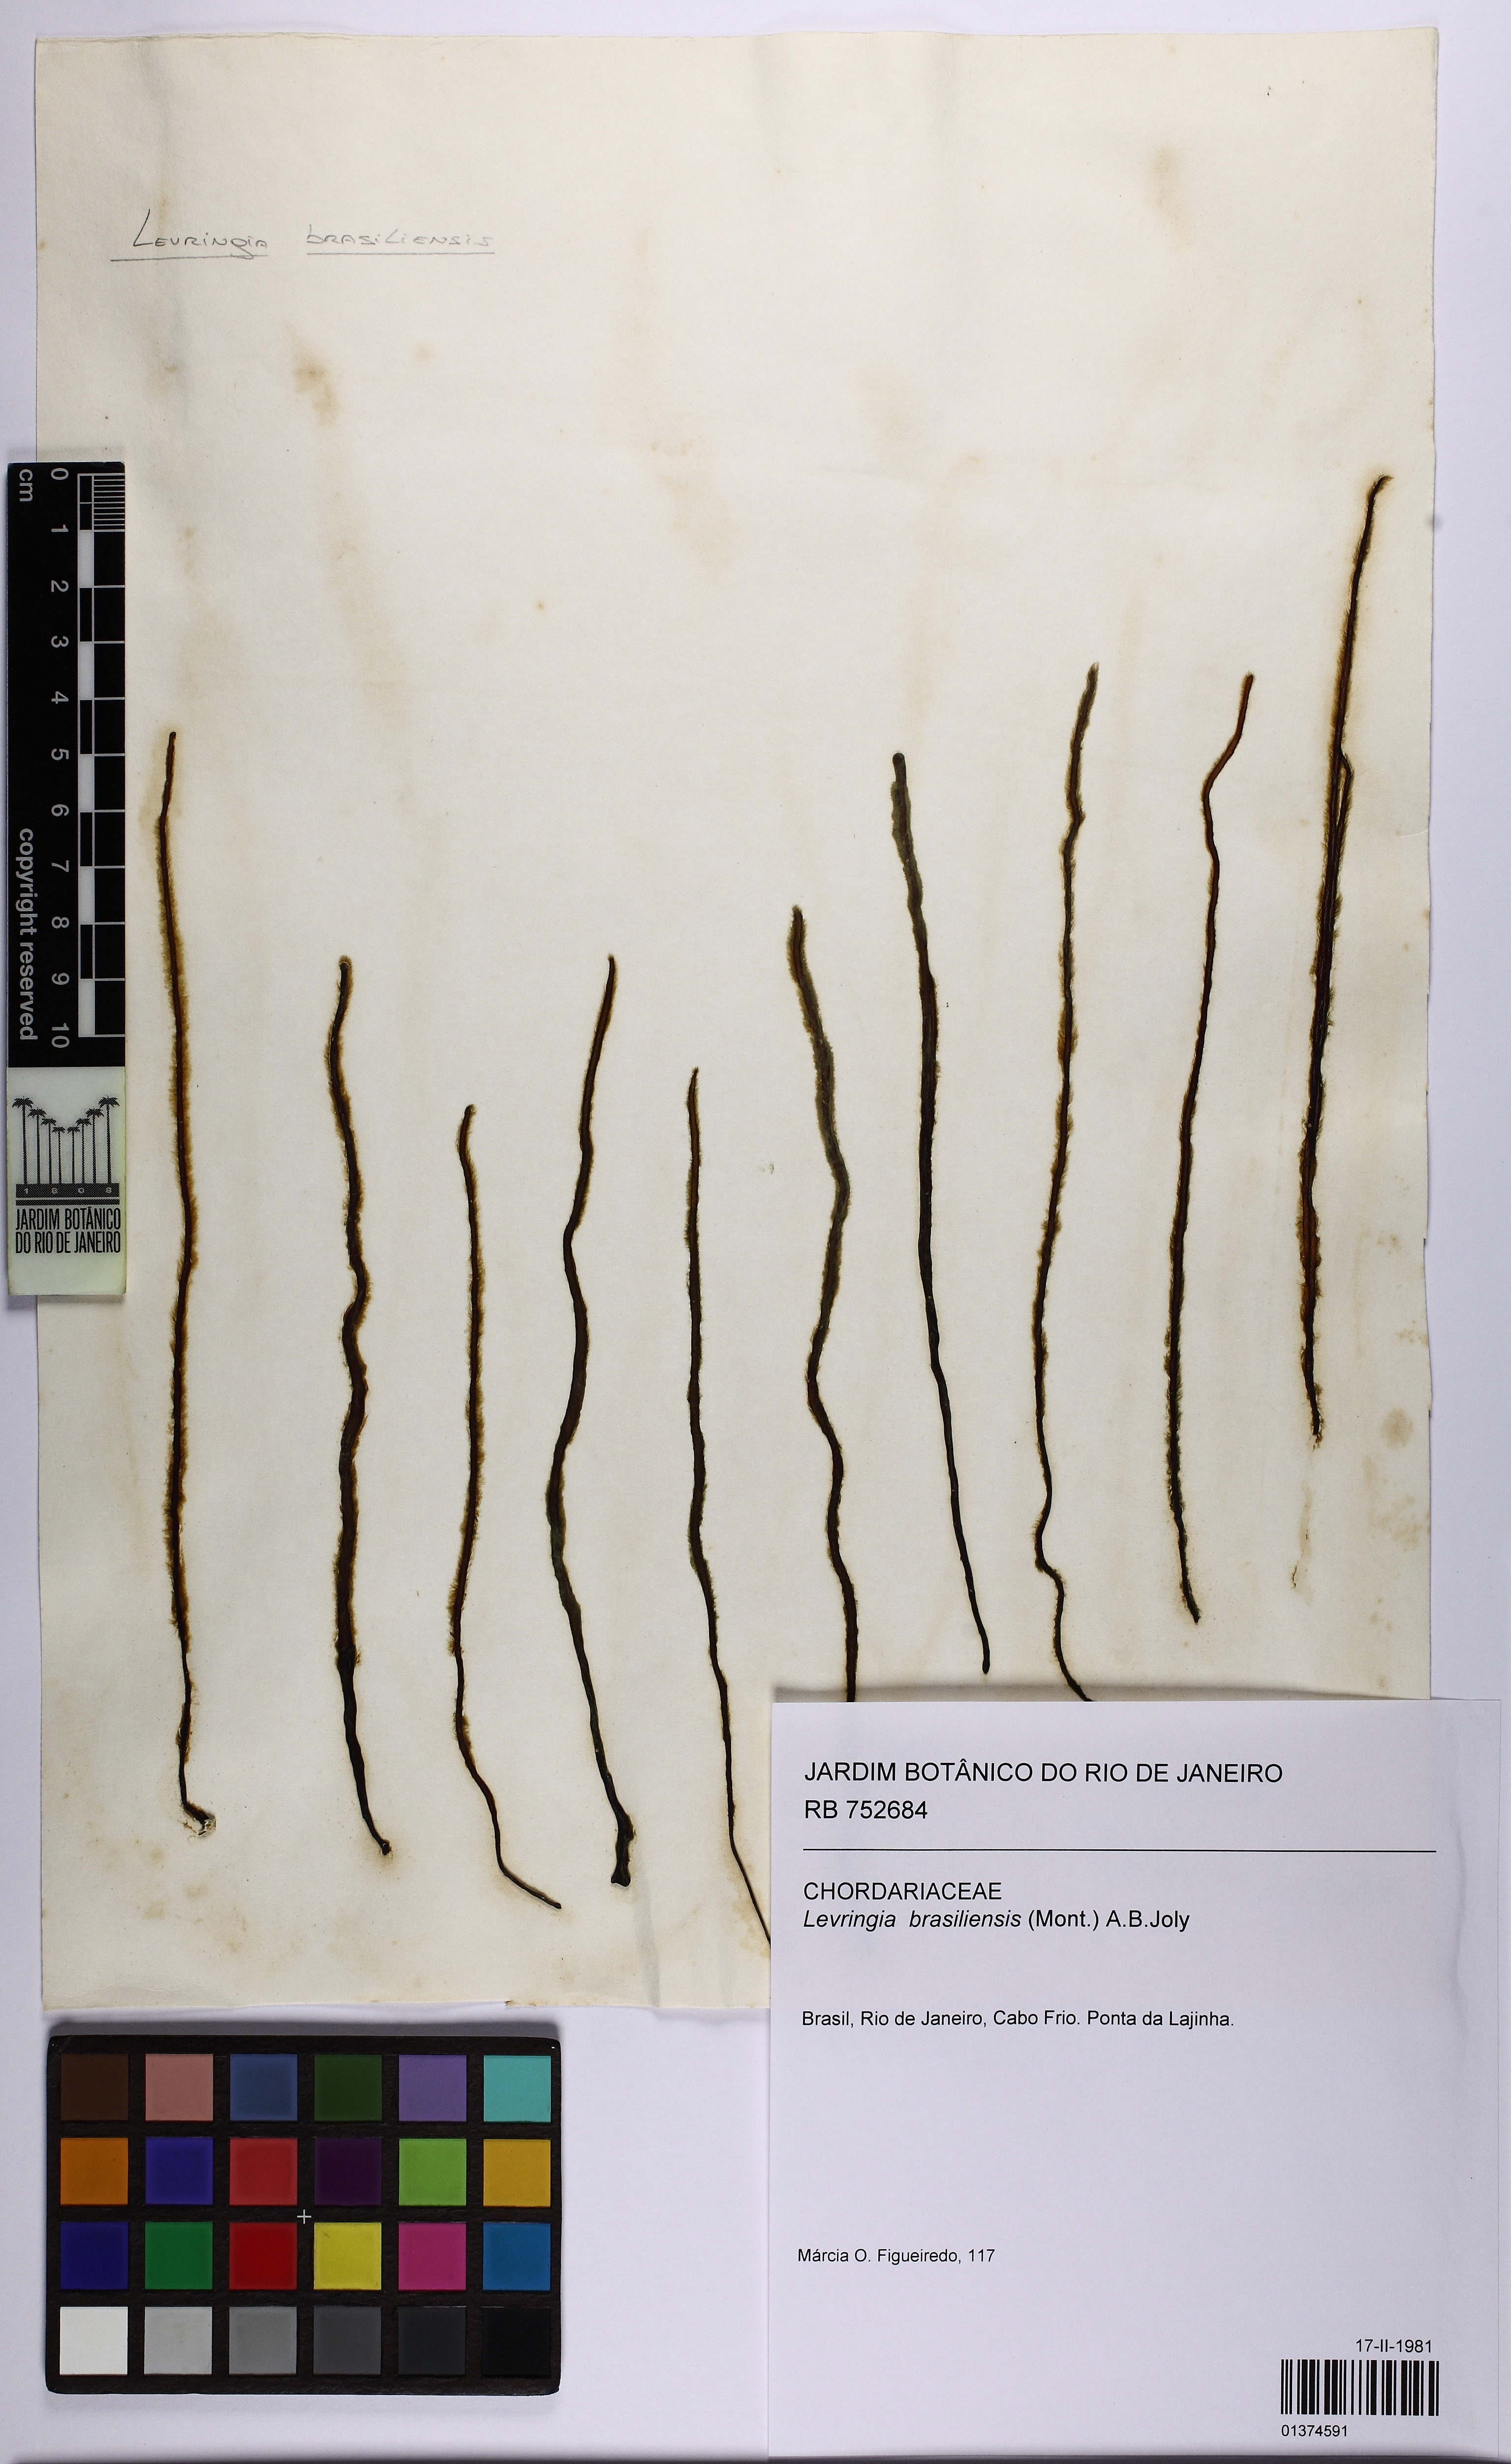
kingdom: Chromista
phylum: Ochrophyta
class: Phaeophyceae
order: Ectocarpales
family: Chordariaceae
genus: Levringia
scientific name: Levringia brasiliensis
